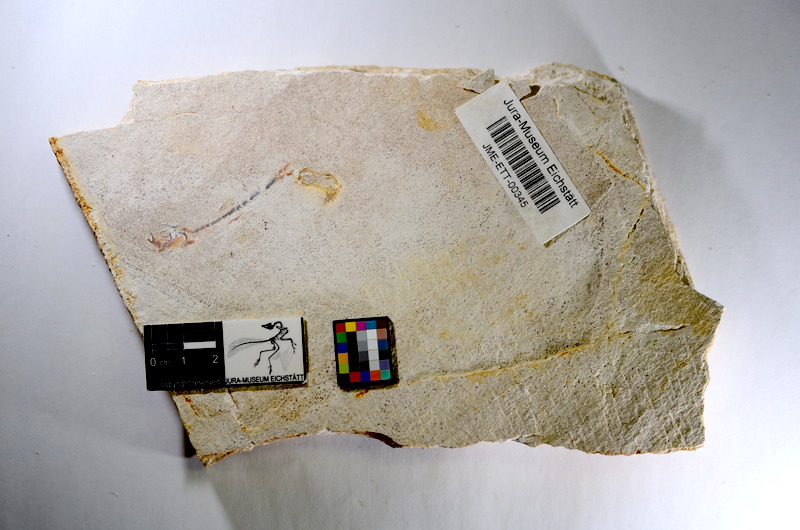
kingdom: Animalia
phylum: Chordata
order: Salmoniformes
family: Orthogonikleithridae
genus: Orthogonikleithrus
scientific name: Orthogonikleithrus hoelli
